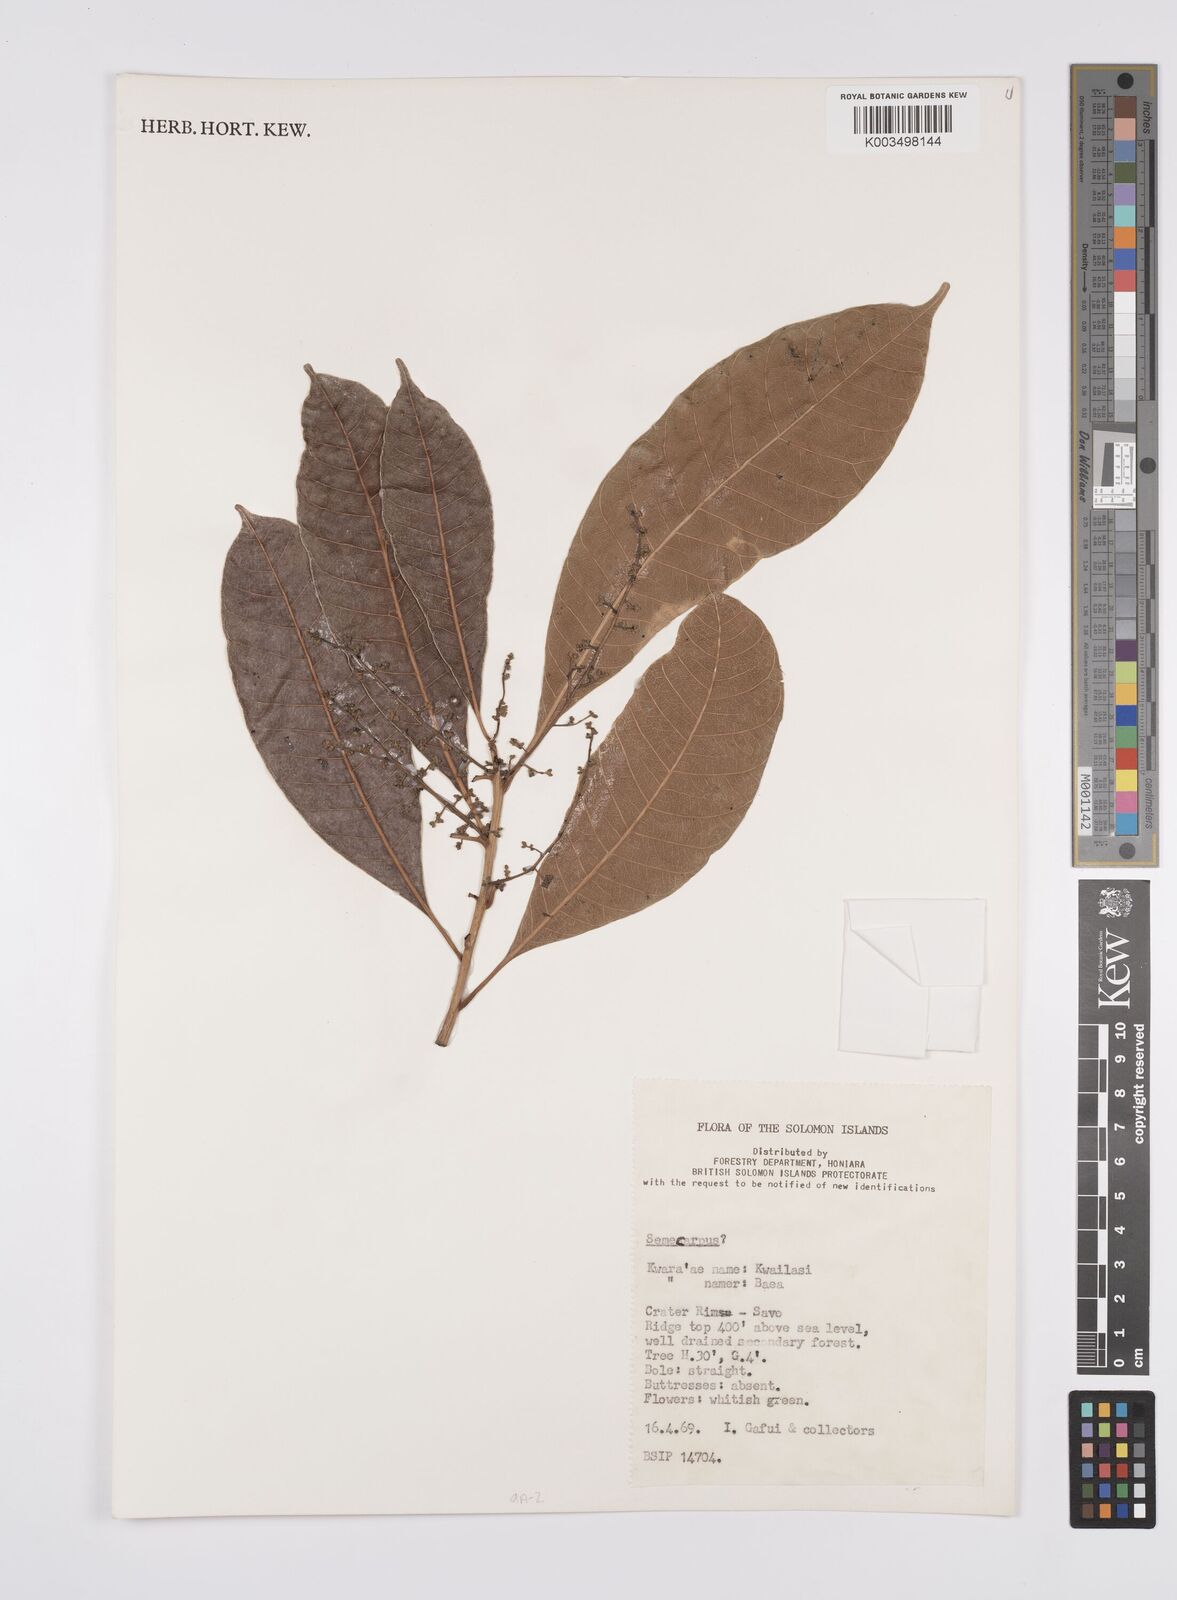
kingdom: Plantae
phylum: Tracheophyta
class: Magnoliopsida
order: Sapindales
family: Anacardiaceae
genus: Semecarpus
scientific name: Semecarpus
